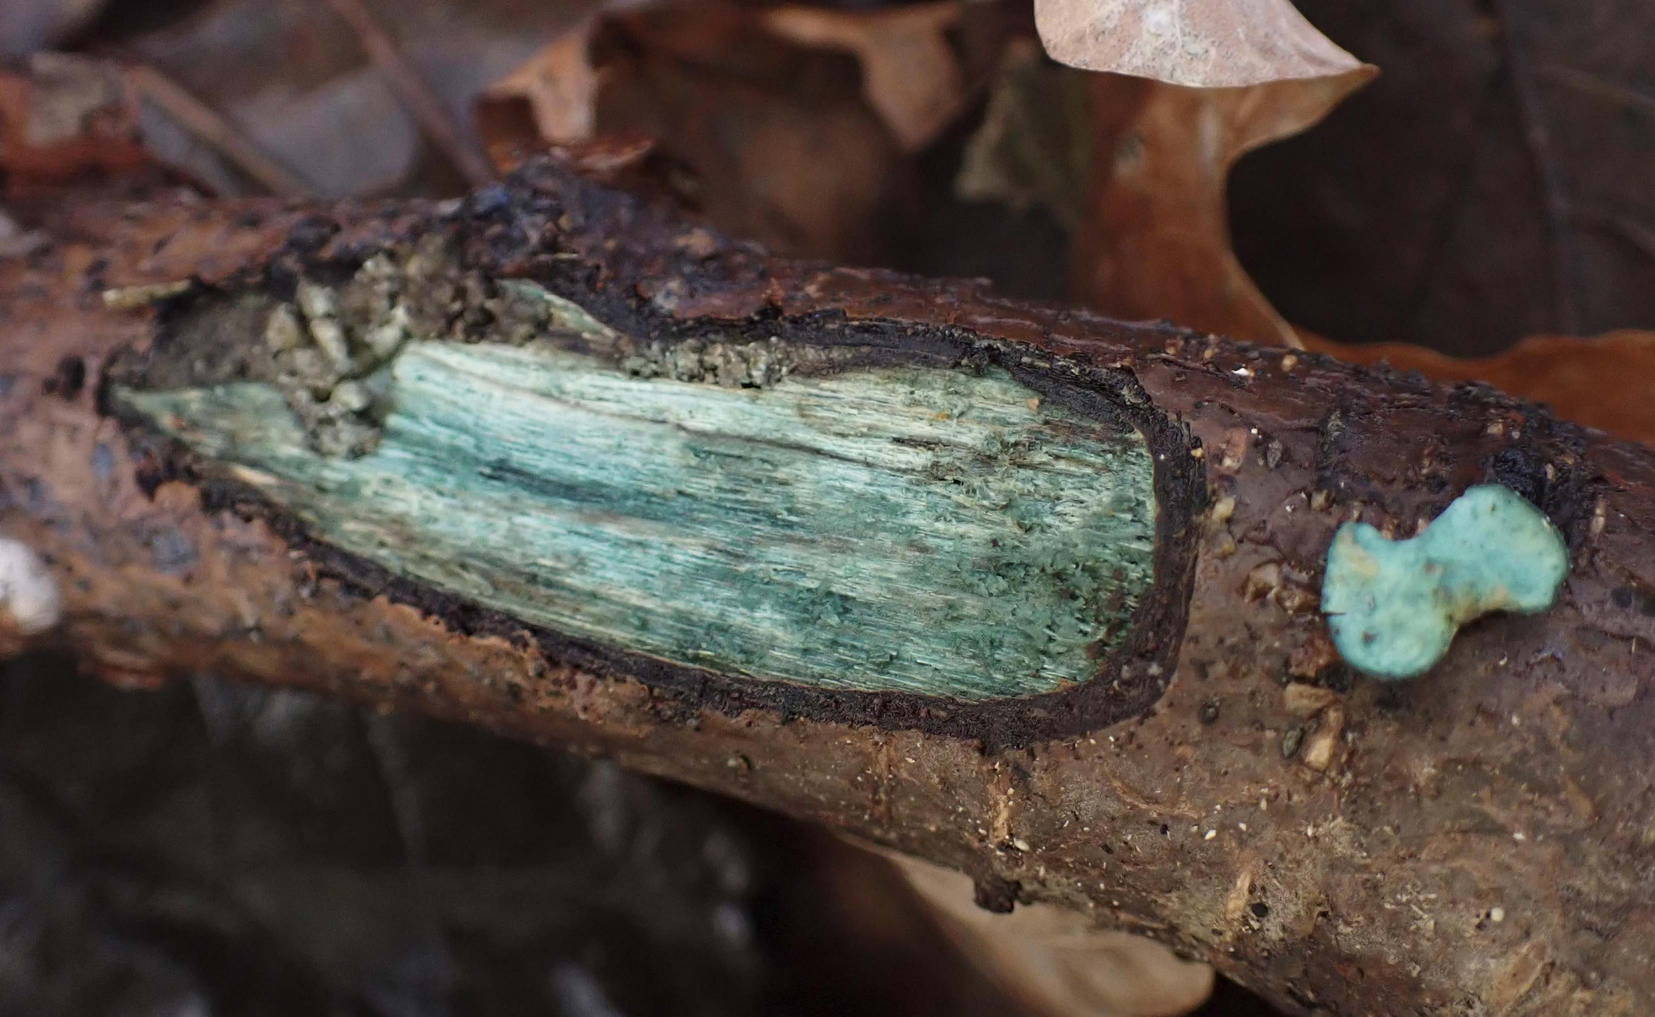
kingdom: Fungi
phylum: Ascomycota
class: Leotiomycetes
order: Helotiales
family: Chlorociboriaceae
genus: Chlorociboria
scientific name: Chlorociboria aeruginascens
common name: almindelig grønskive
